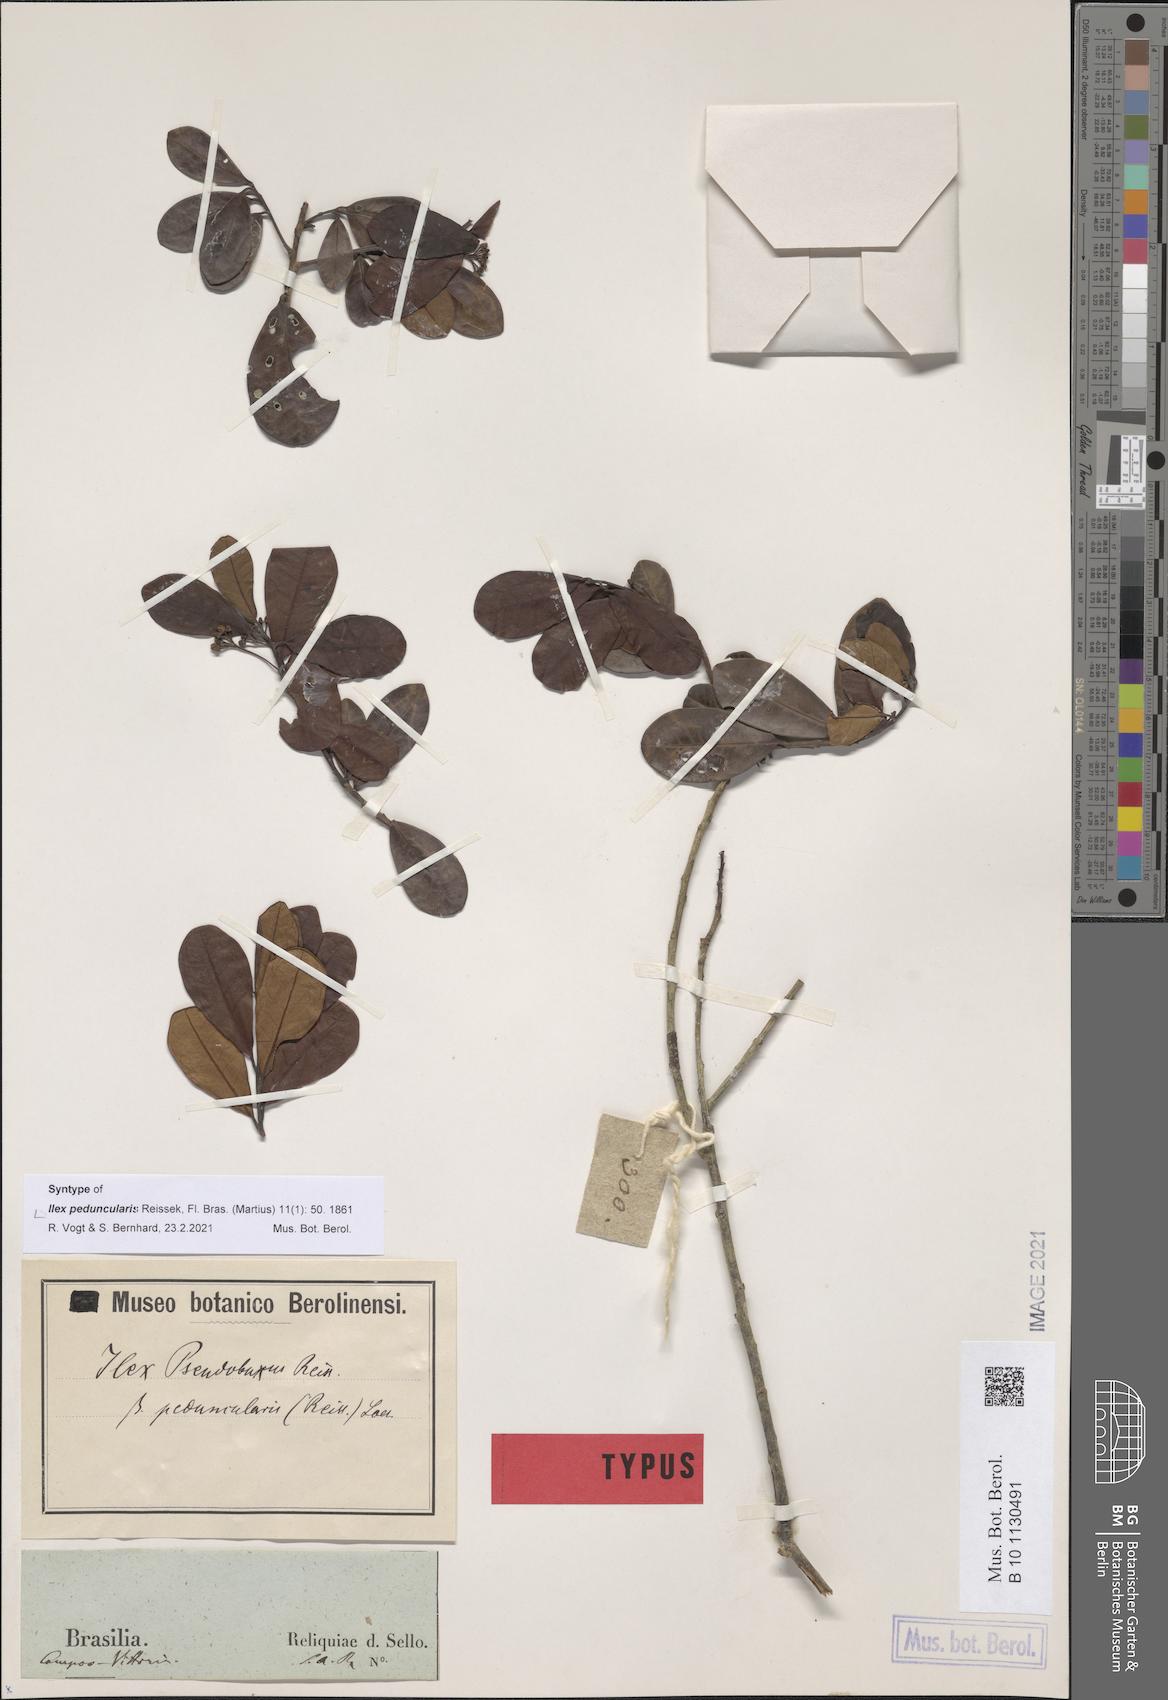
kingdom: Plantae
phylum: Tracheophyta
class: Magnoliopsida
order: Aquifoliales
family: Aquifoliaceae
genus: Ilex
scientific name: Ilex pseudobuxus
